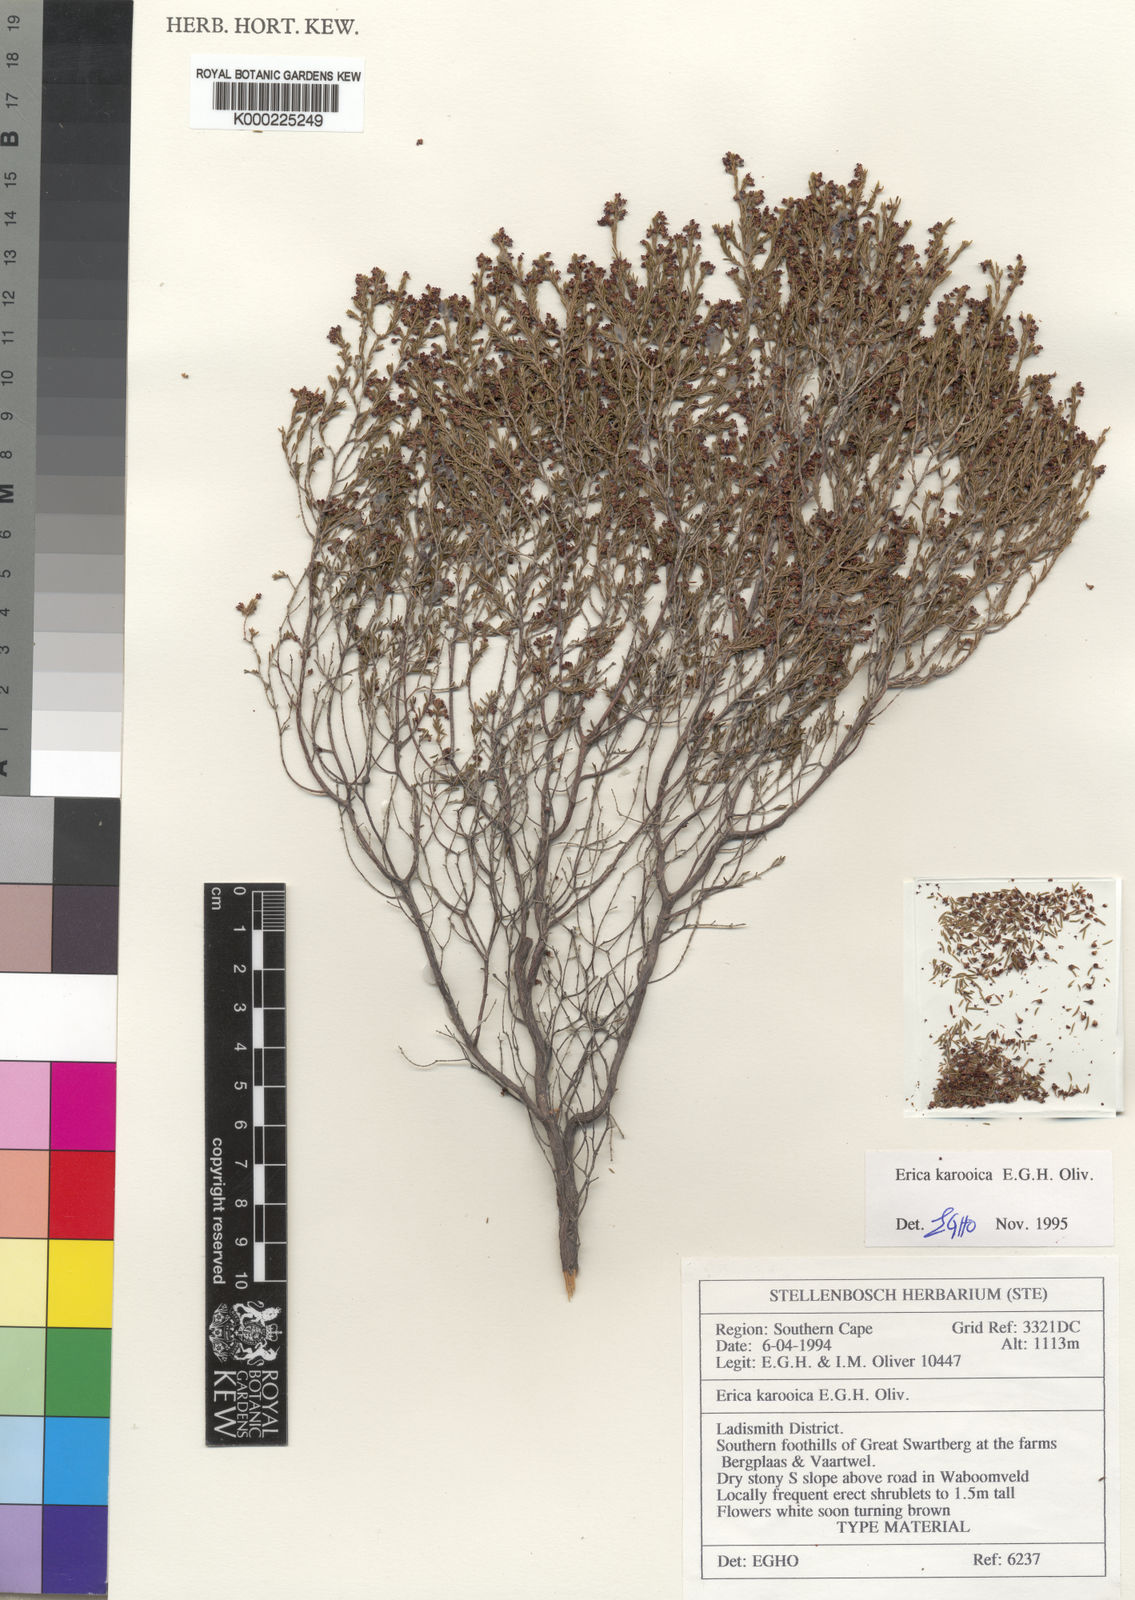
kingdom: Plantae
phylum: Tracheophyta
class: Magnoliopsida
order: Ericales
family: Ericaceae
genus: Erica
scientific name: Erica karooica
